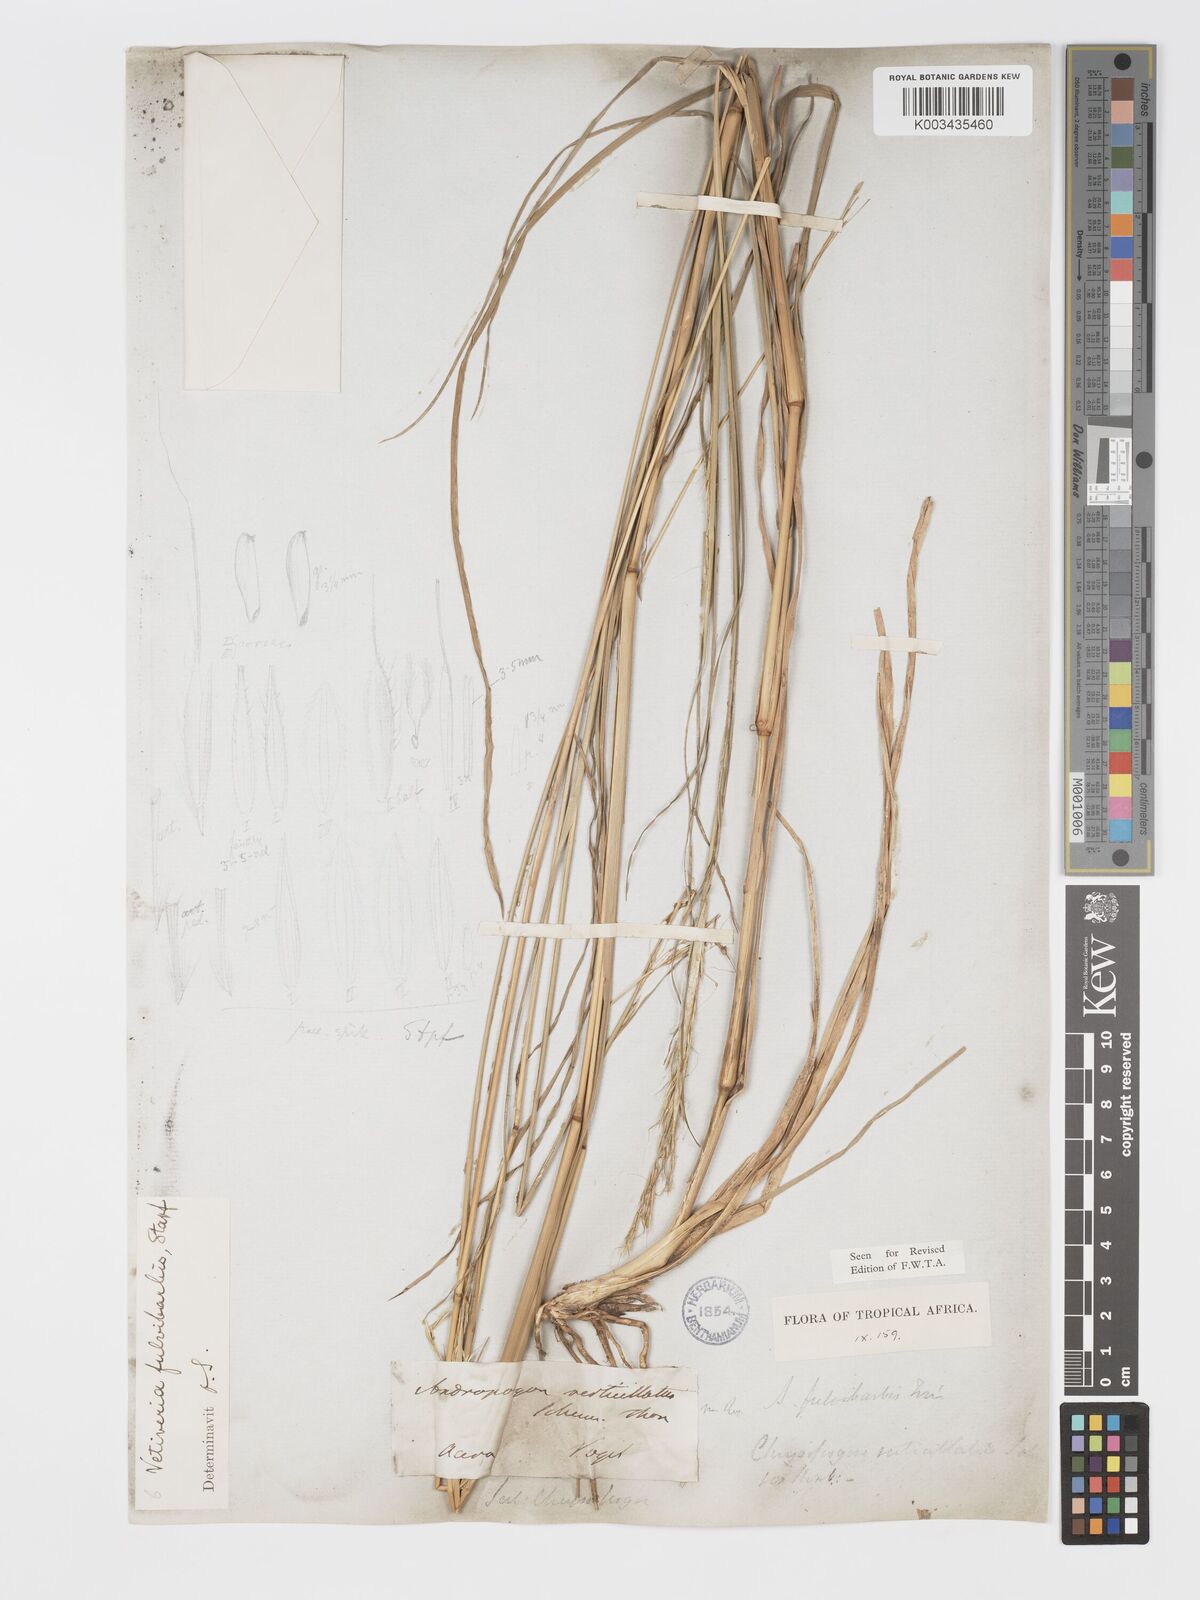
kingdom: Plantae
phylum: Tracheophyta
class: Liliopsida
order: Poales
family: Poaceae
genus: Chrysopogon
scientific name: Chrysopogon fulvibarbis
